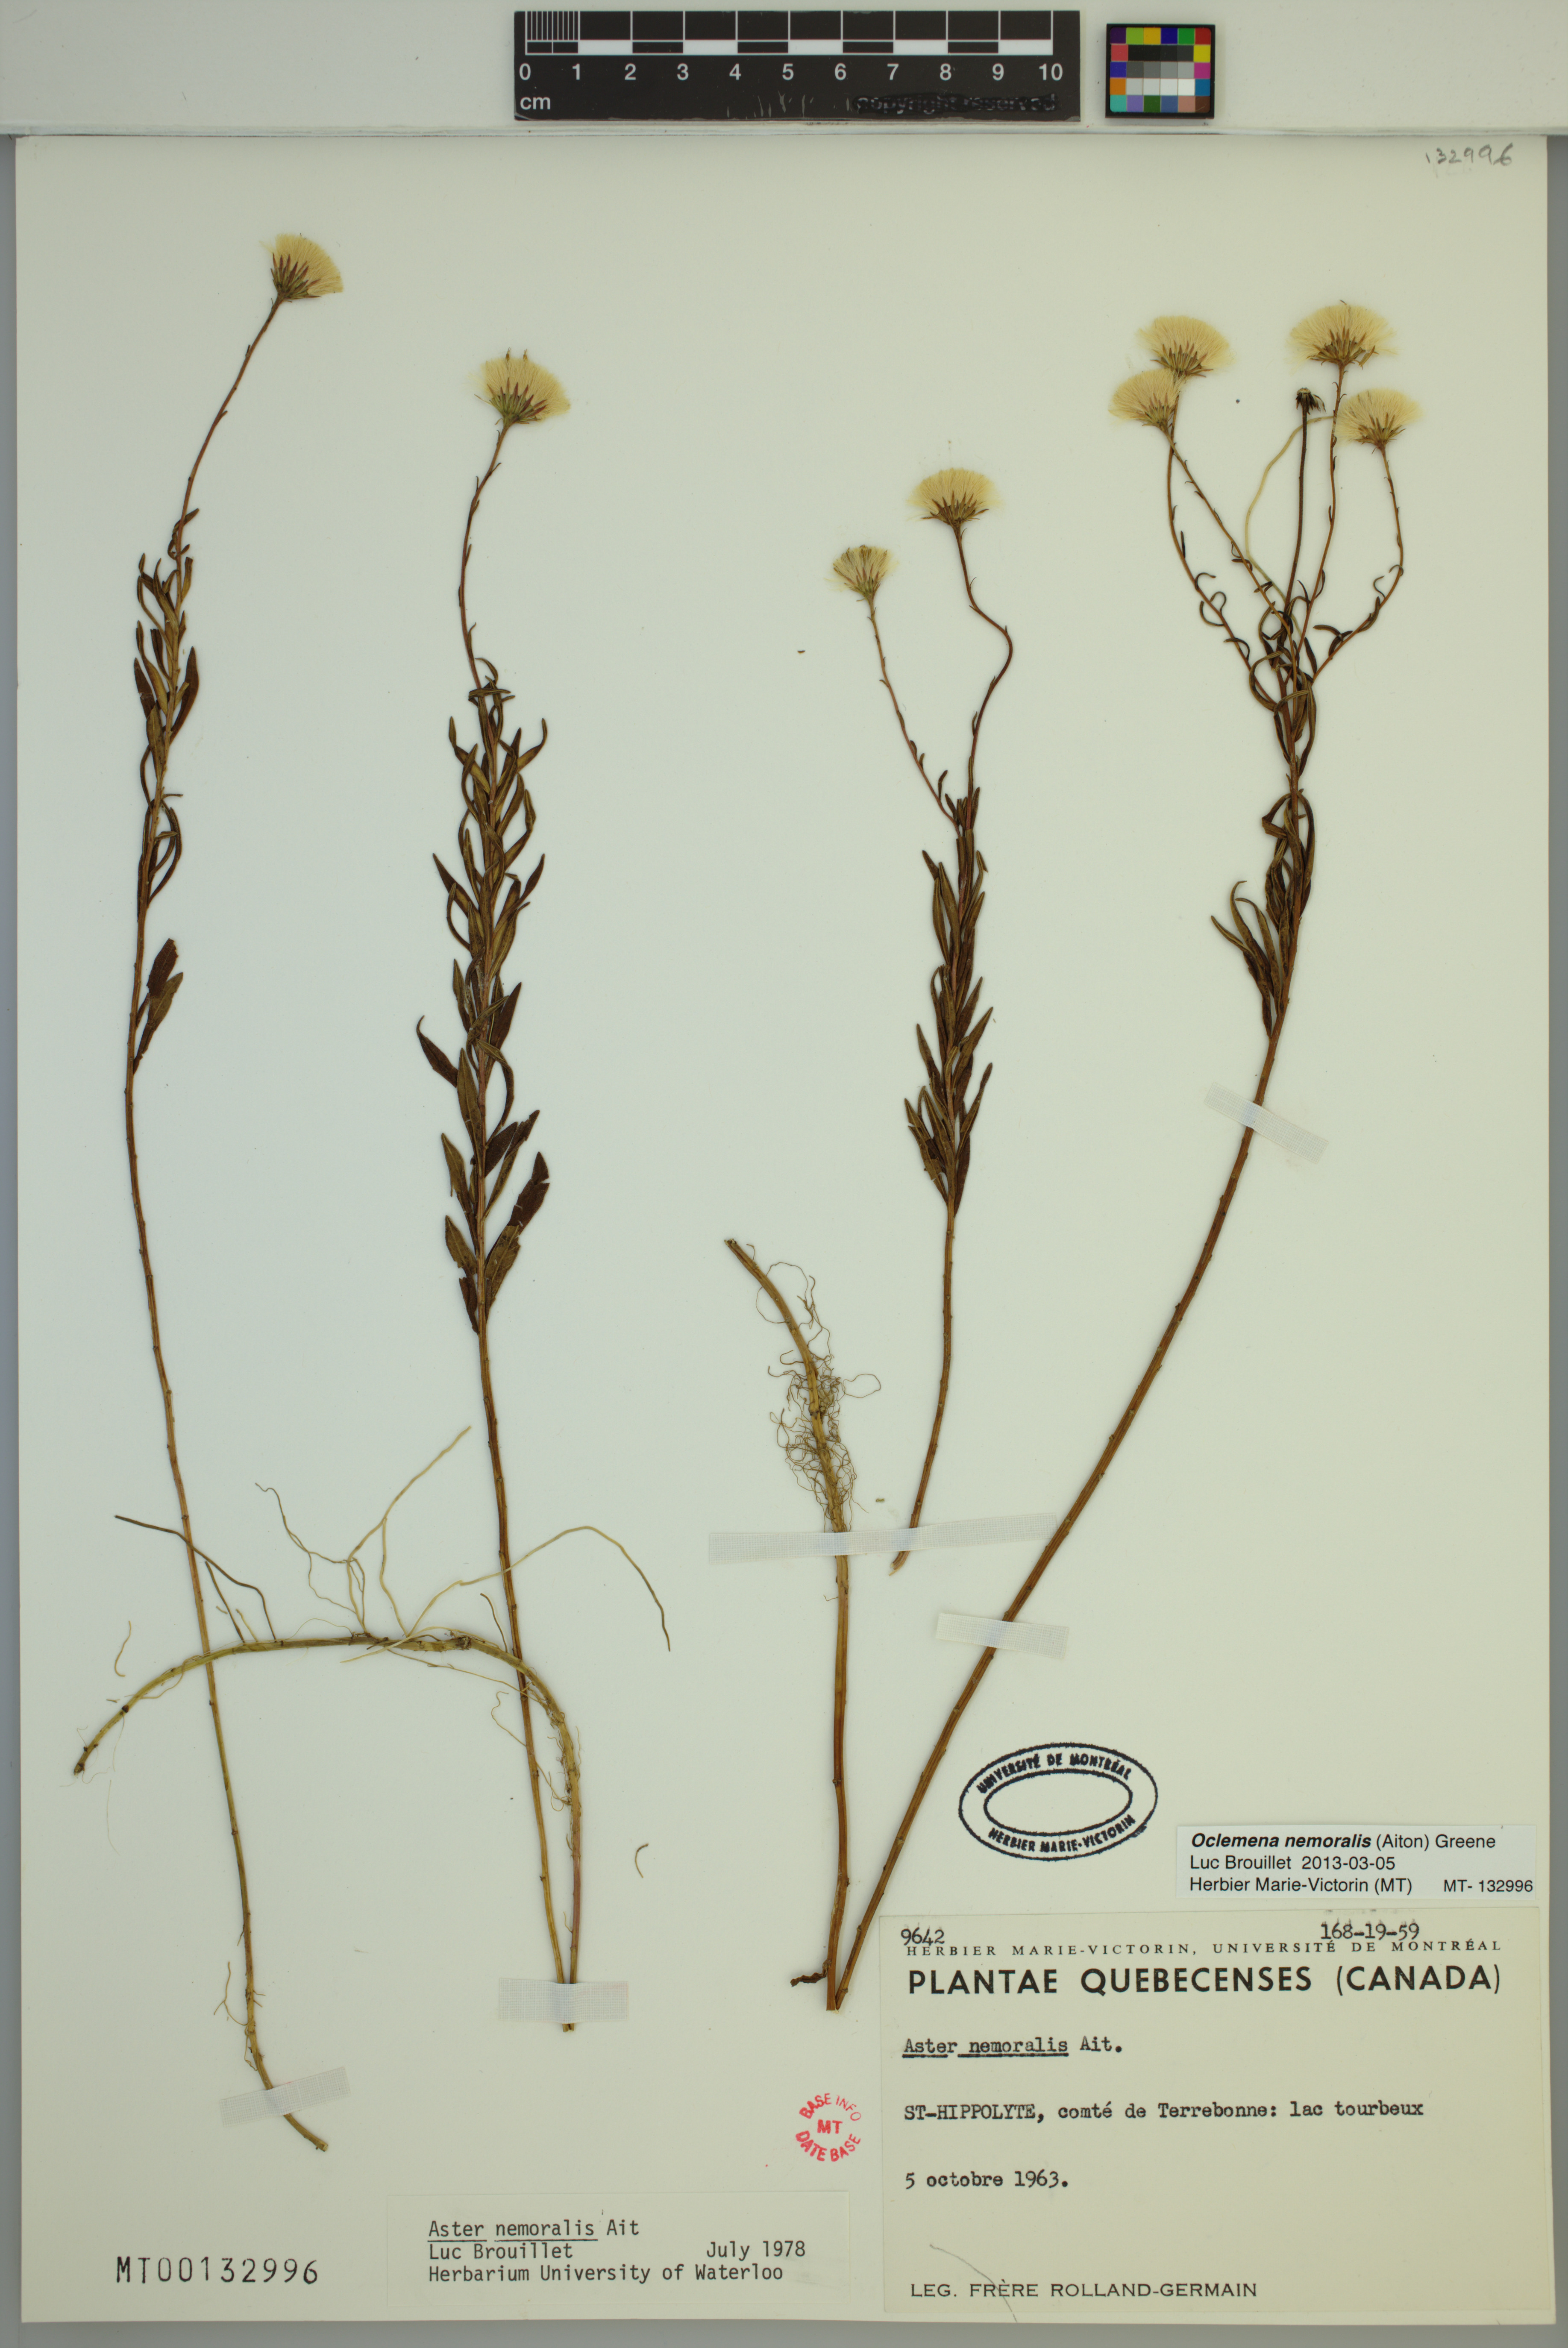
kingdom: Plantae
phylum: Tracheophyta
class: Magnoliopsida
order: Asterales
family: Asteraceae
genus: Oclemena
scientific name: Oclemena nemoralis
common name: Bog aster
